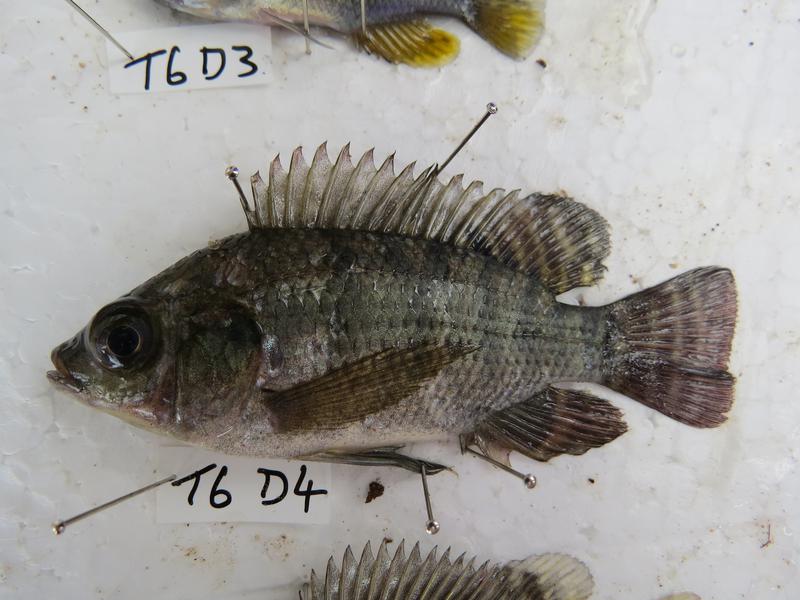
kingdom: Animalia
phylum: Chordata
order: Perciformes
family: Cichlidae
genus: Oreochromis
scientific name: Oreochromis niloticus
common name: Nile tilapia
